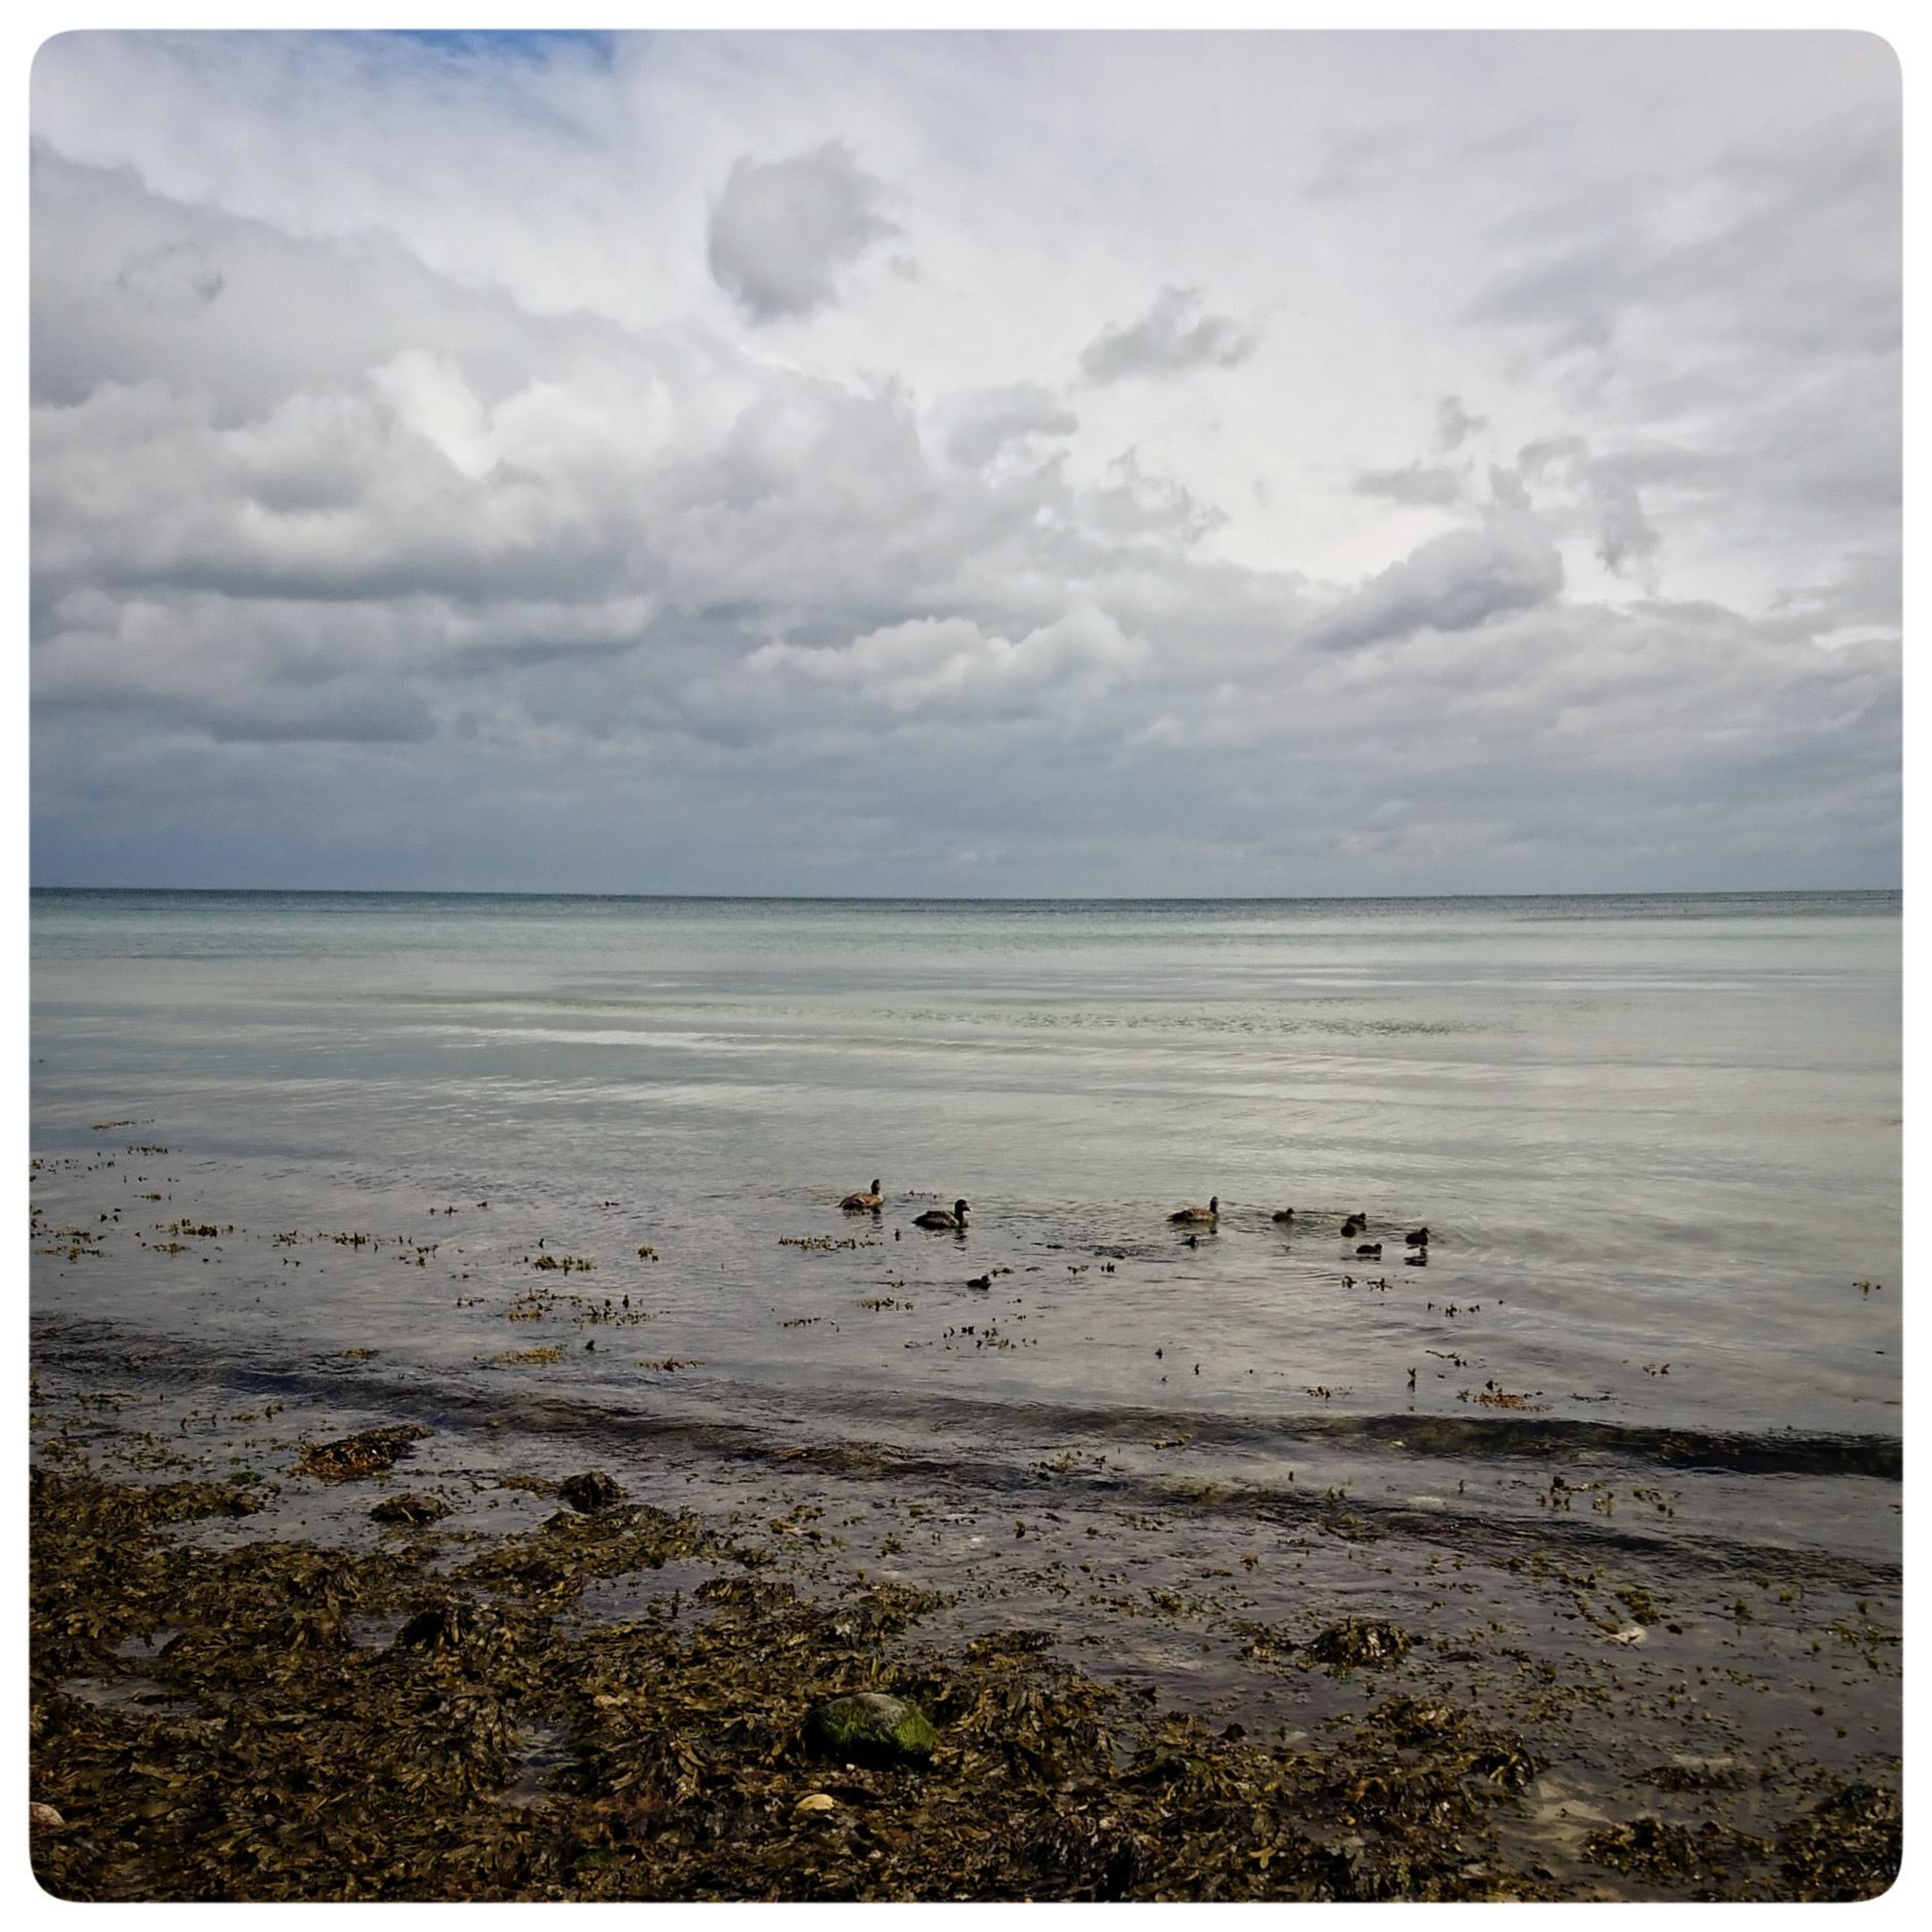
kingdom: Animalia
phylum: Chordata
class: Aves
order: Anseriformes
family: Anatidae
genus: Somateria
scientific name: Somateria mollissima
